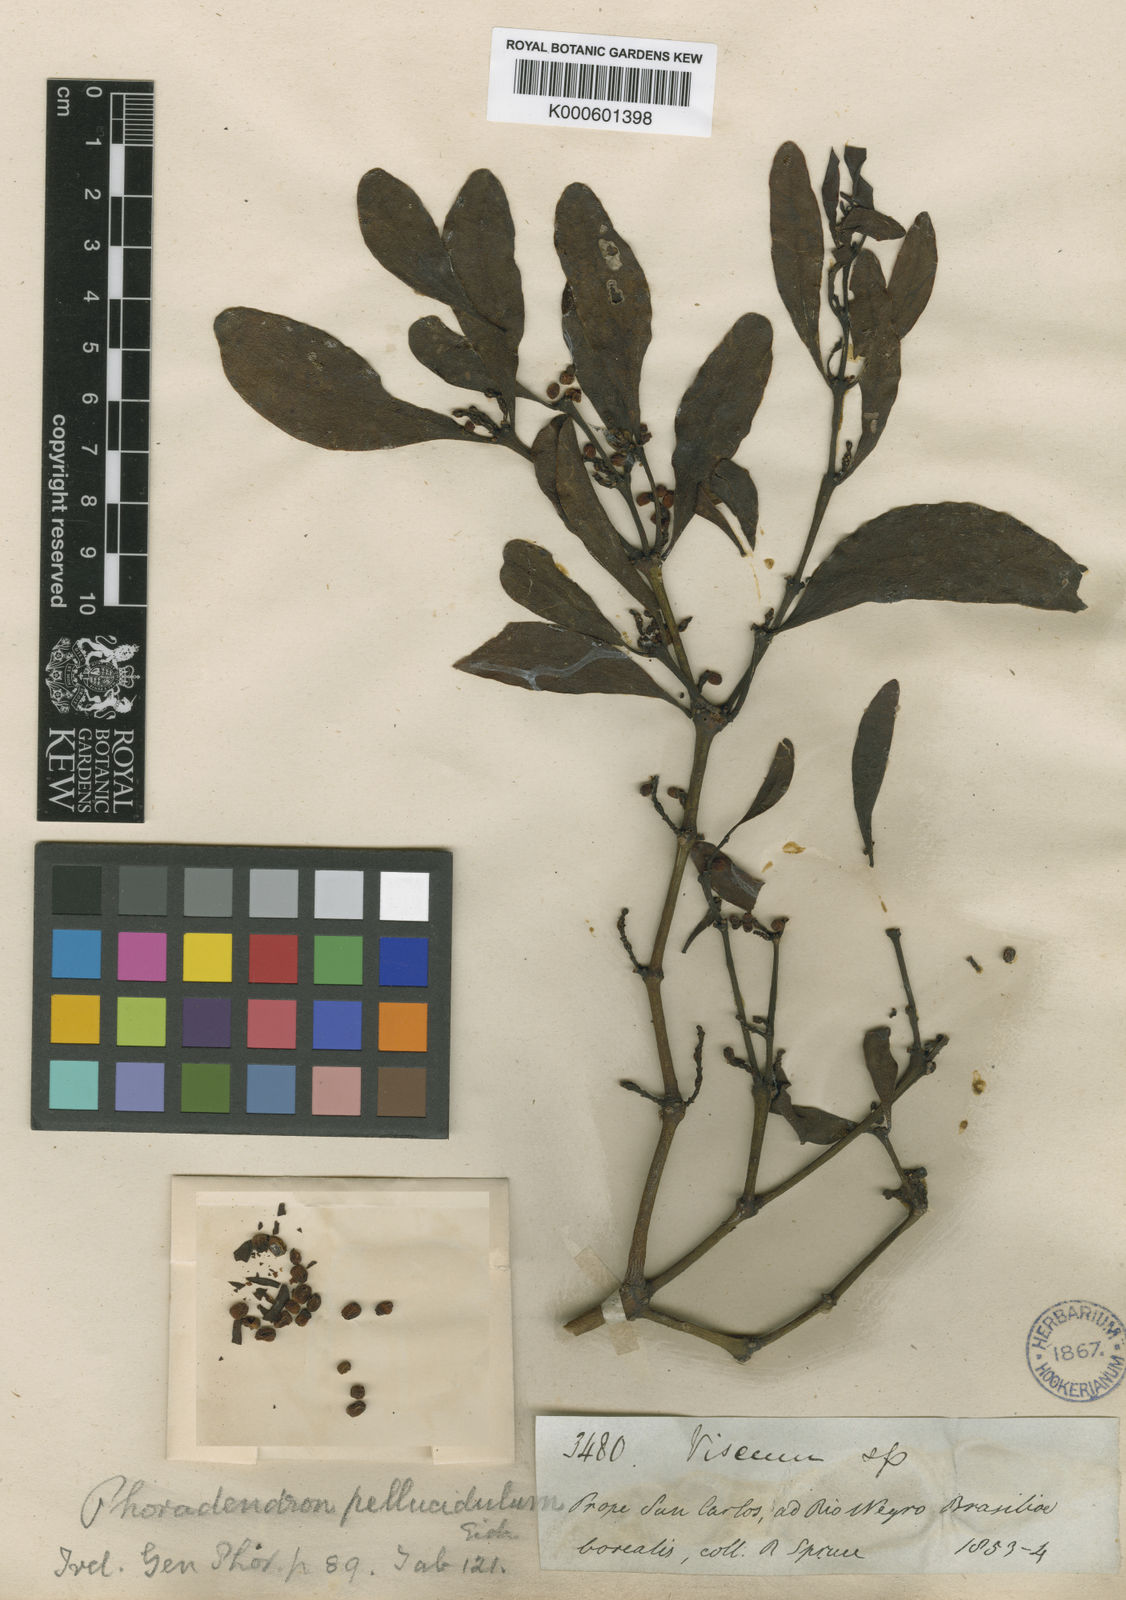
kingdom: Plantae
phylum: Tracheophyta
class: Magnoliopsida
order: Santalales
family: Viscaceae
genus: Phoradendron
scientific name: Phoradendron pellucidulum
